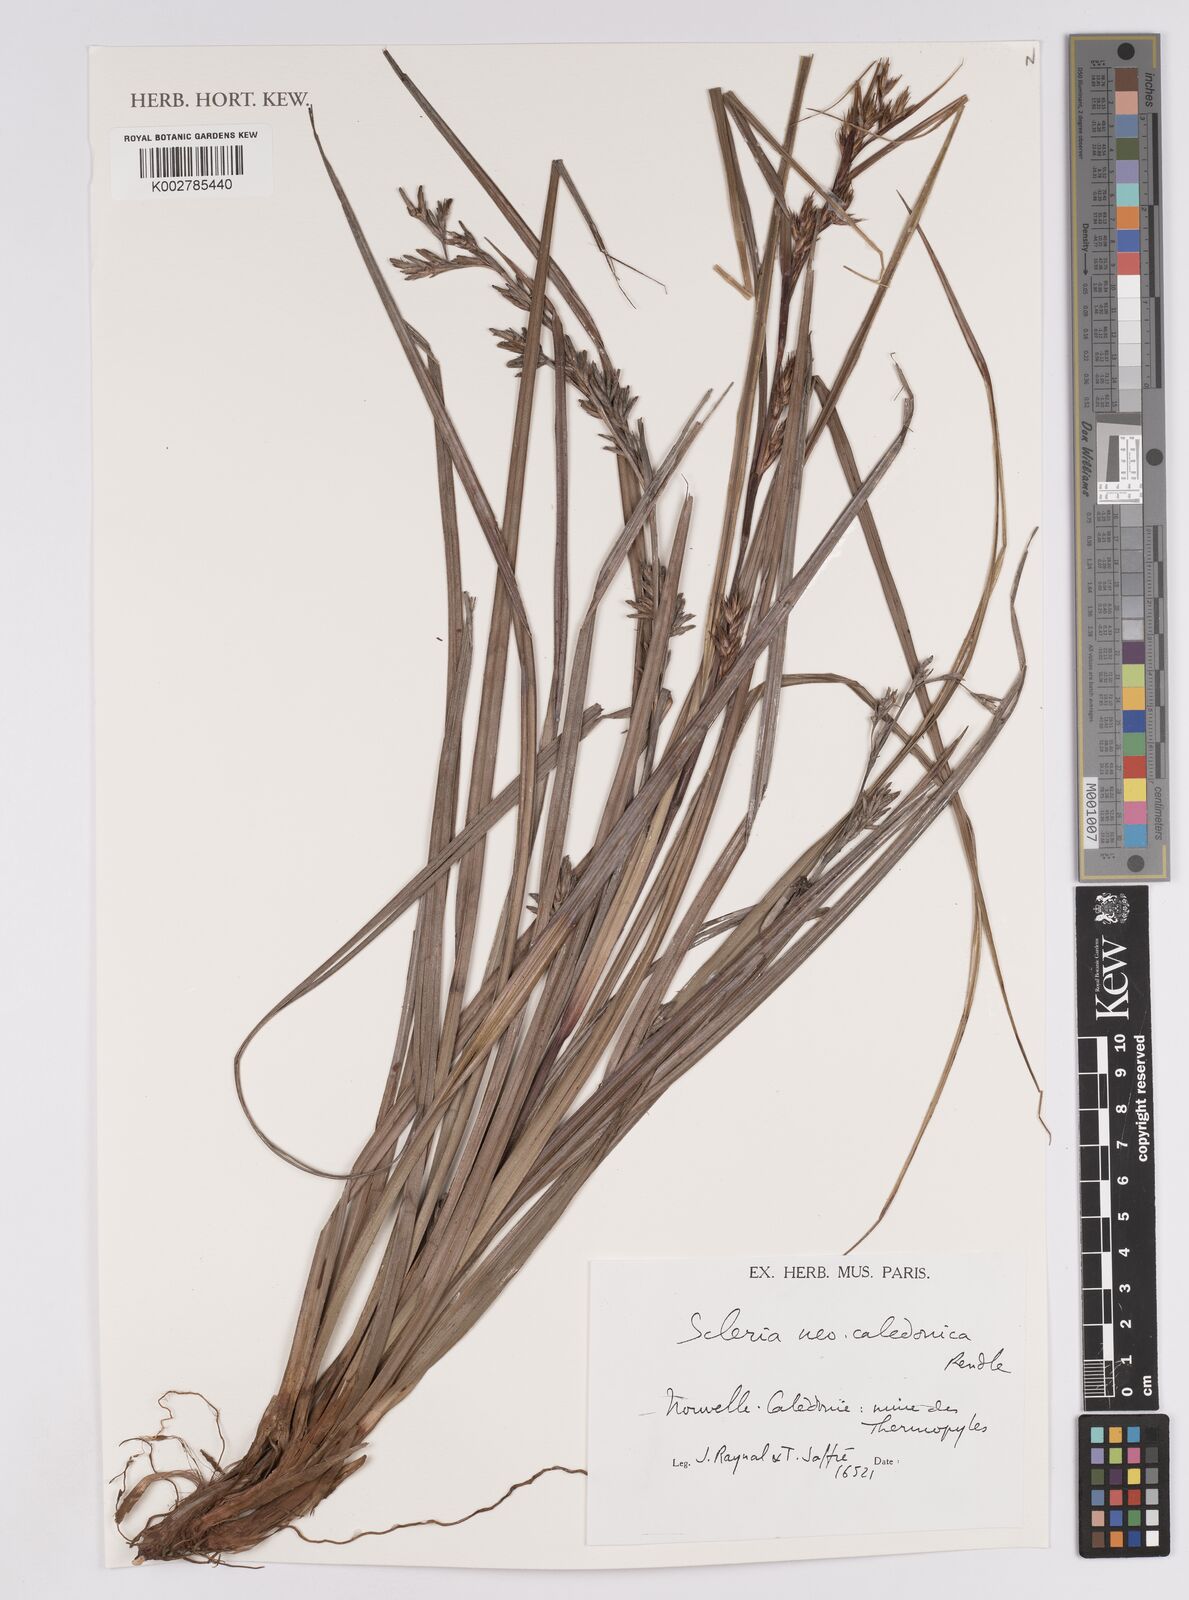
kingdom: Plantae
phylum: Tracheophyta
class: Liliopsida
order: Poales
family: Cyperaceae
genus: Scleria
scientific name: Scleria neocaledonica
